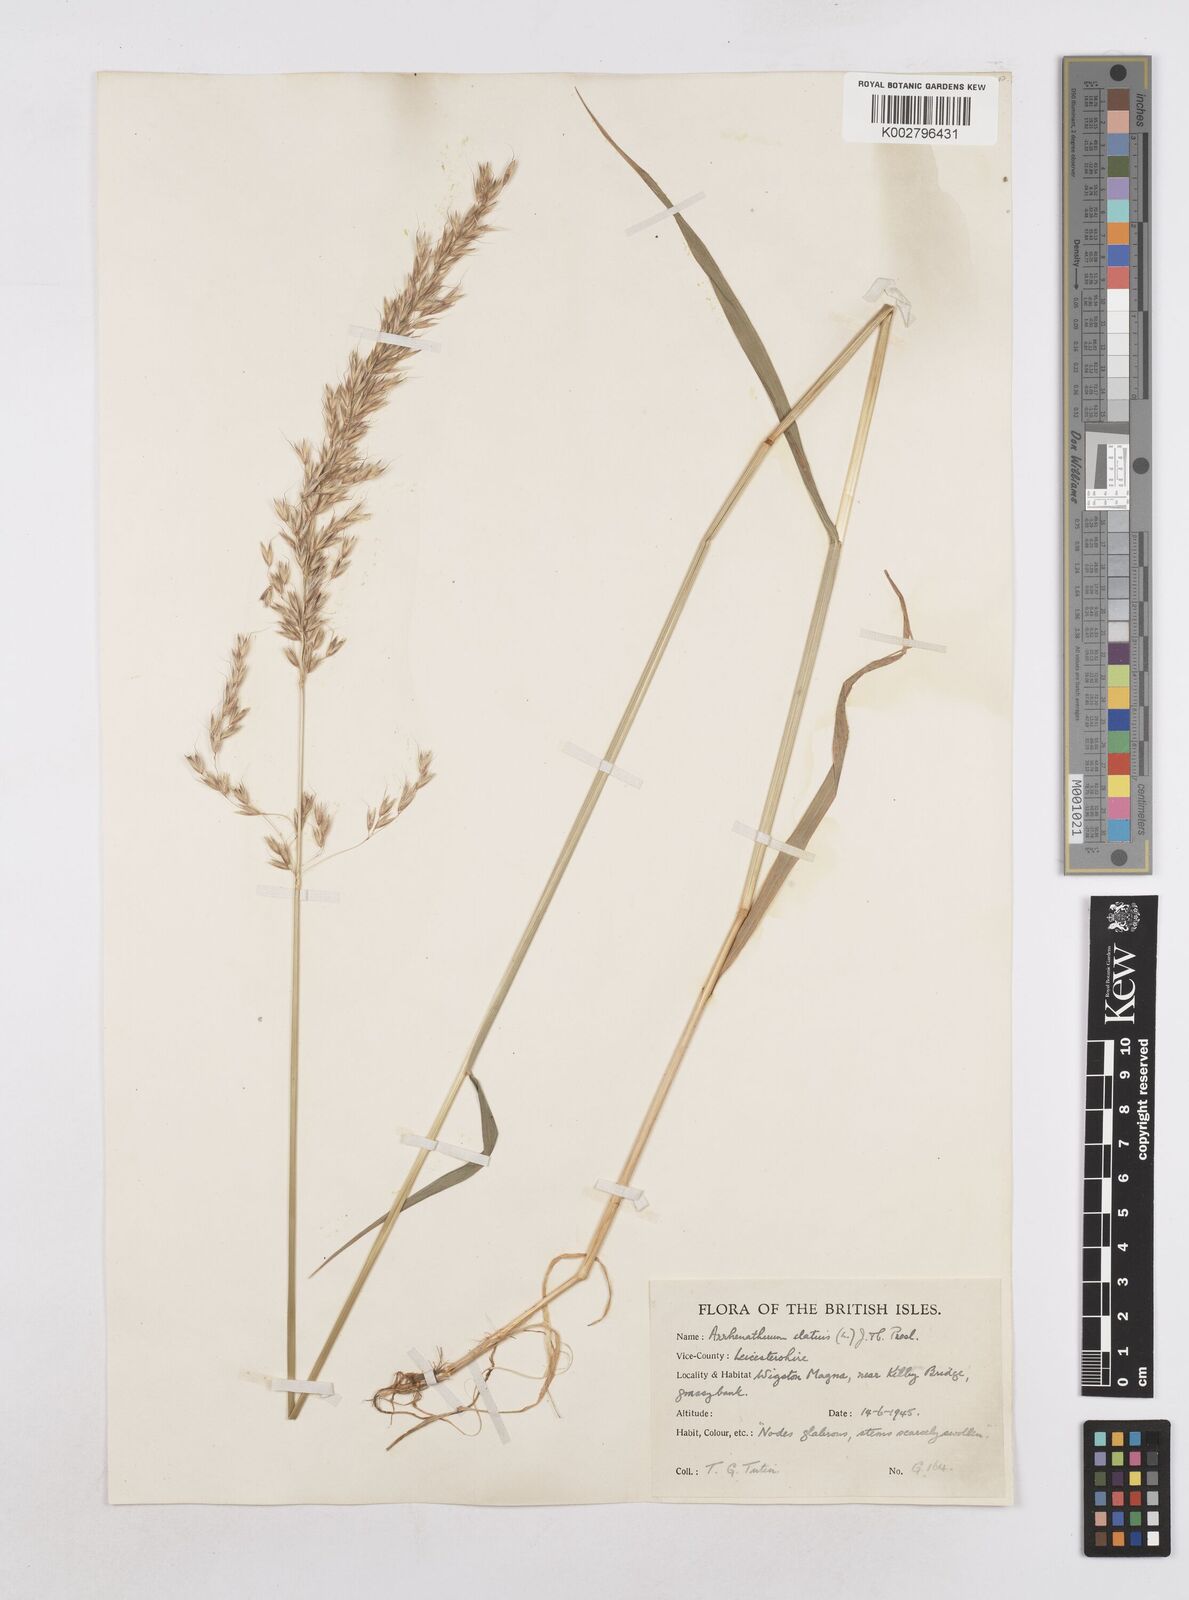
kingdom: Plantae
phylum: Tracheophyta
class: Liliopsida
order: Poales
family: Poaceae
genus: Arrhenatherum
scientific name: Arrhenatherum elatius
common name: Tall oatgrass
